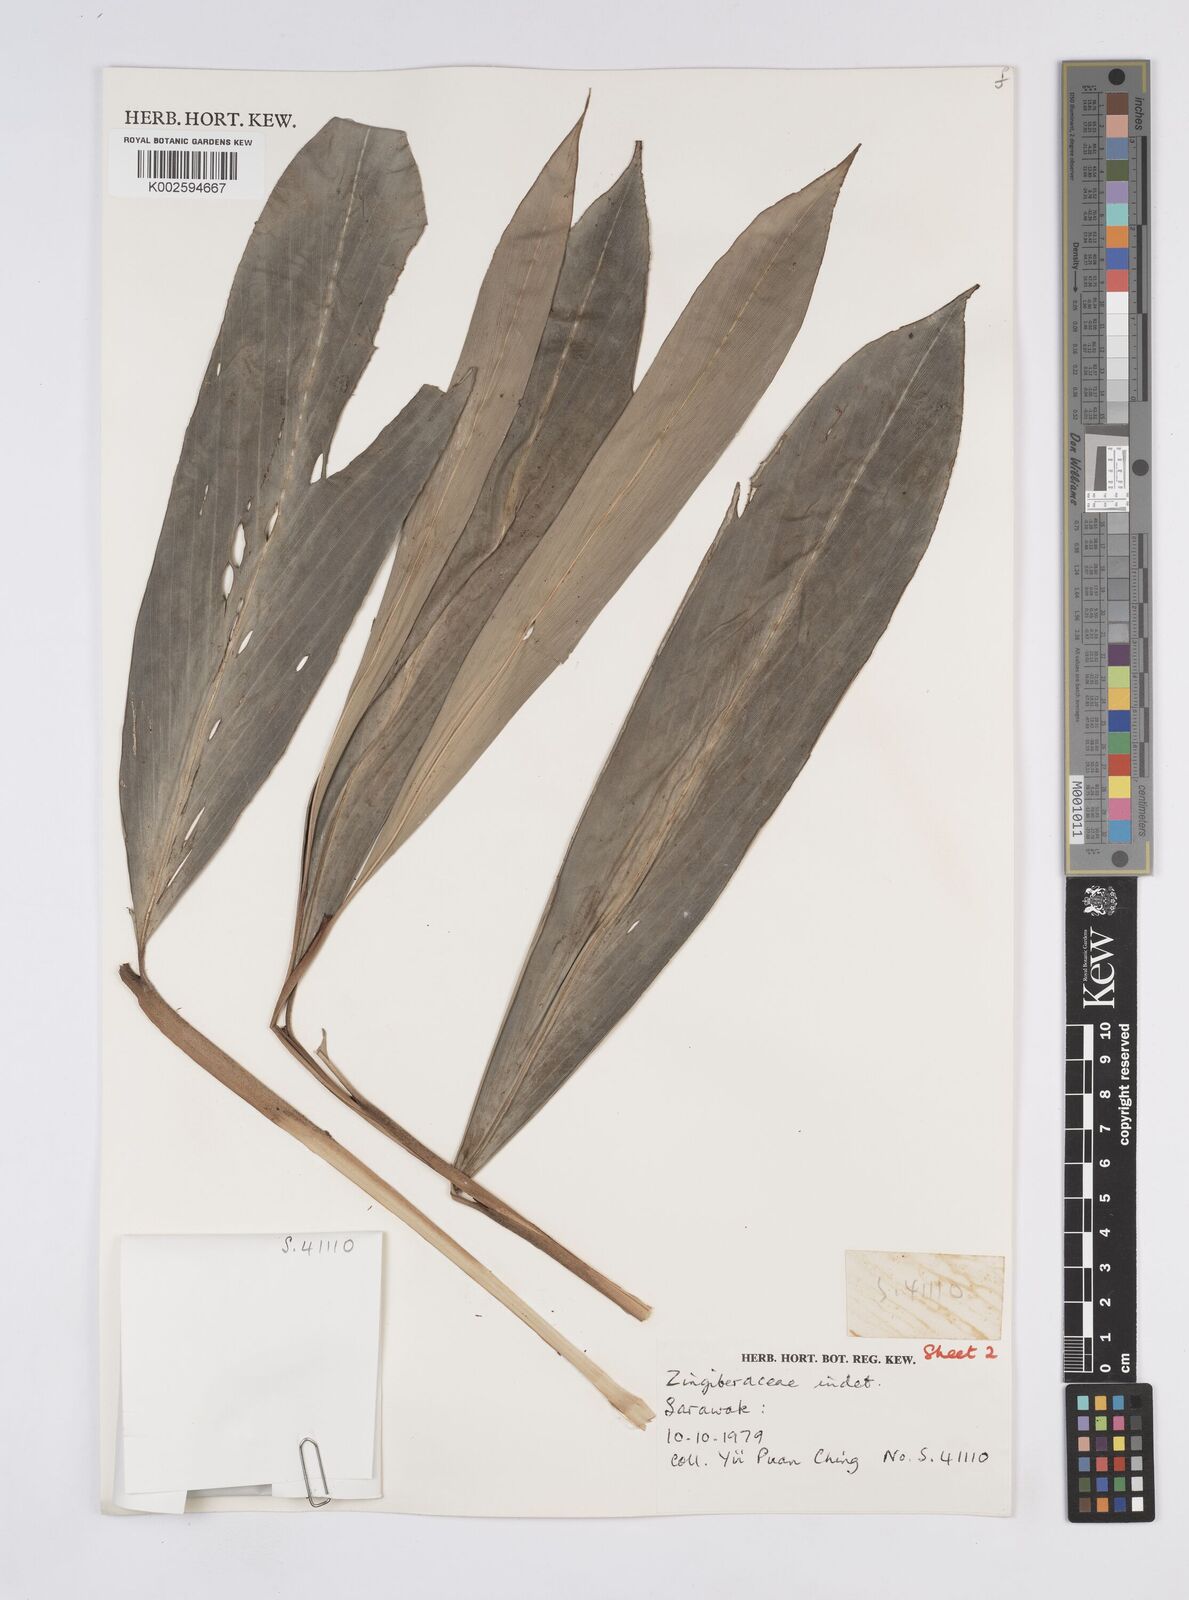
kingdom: Plantae
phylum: Tracheophyta
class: Liliopsida
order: Zingiberales
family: Zingiberaceae
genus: Geocharis
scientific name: Geocharis fusiformis
